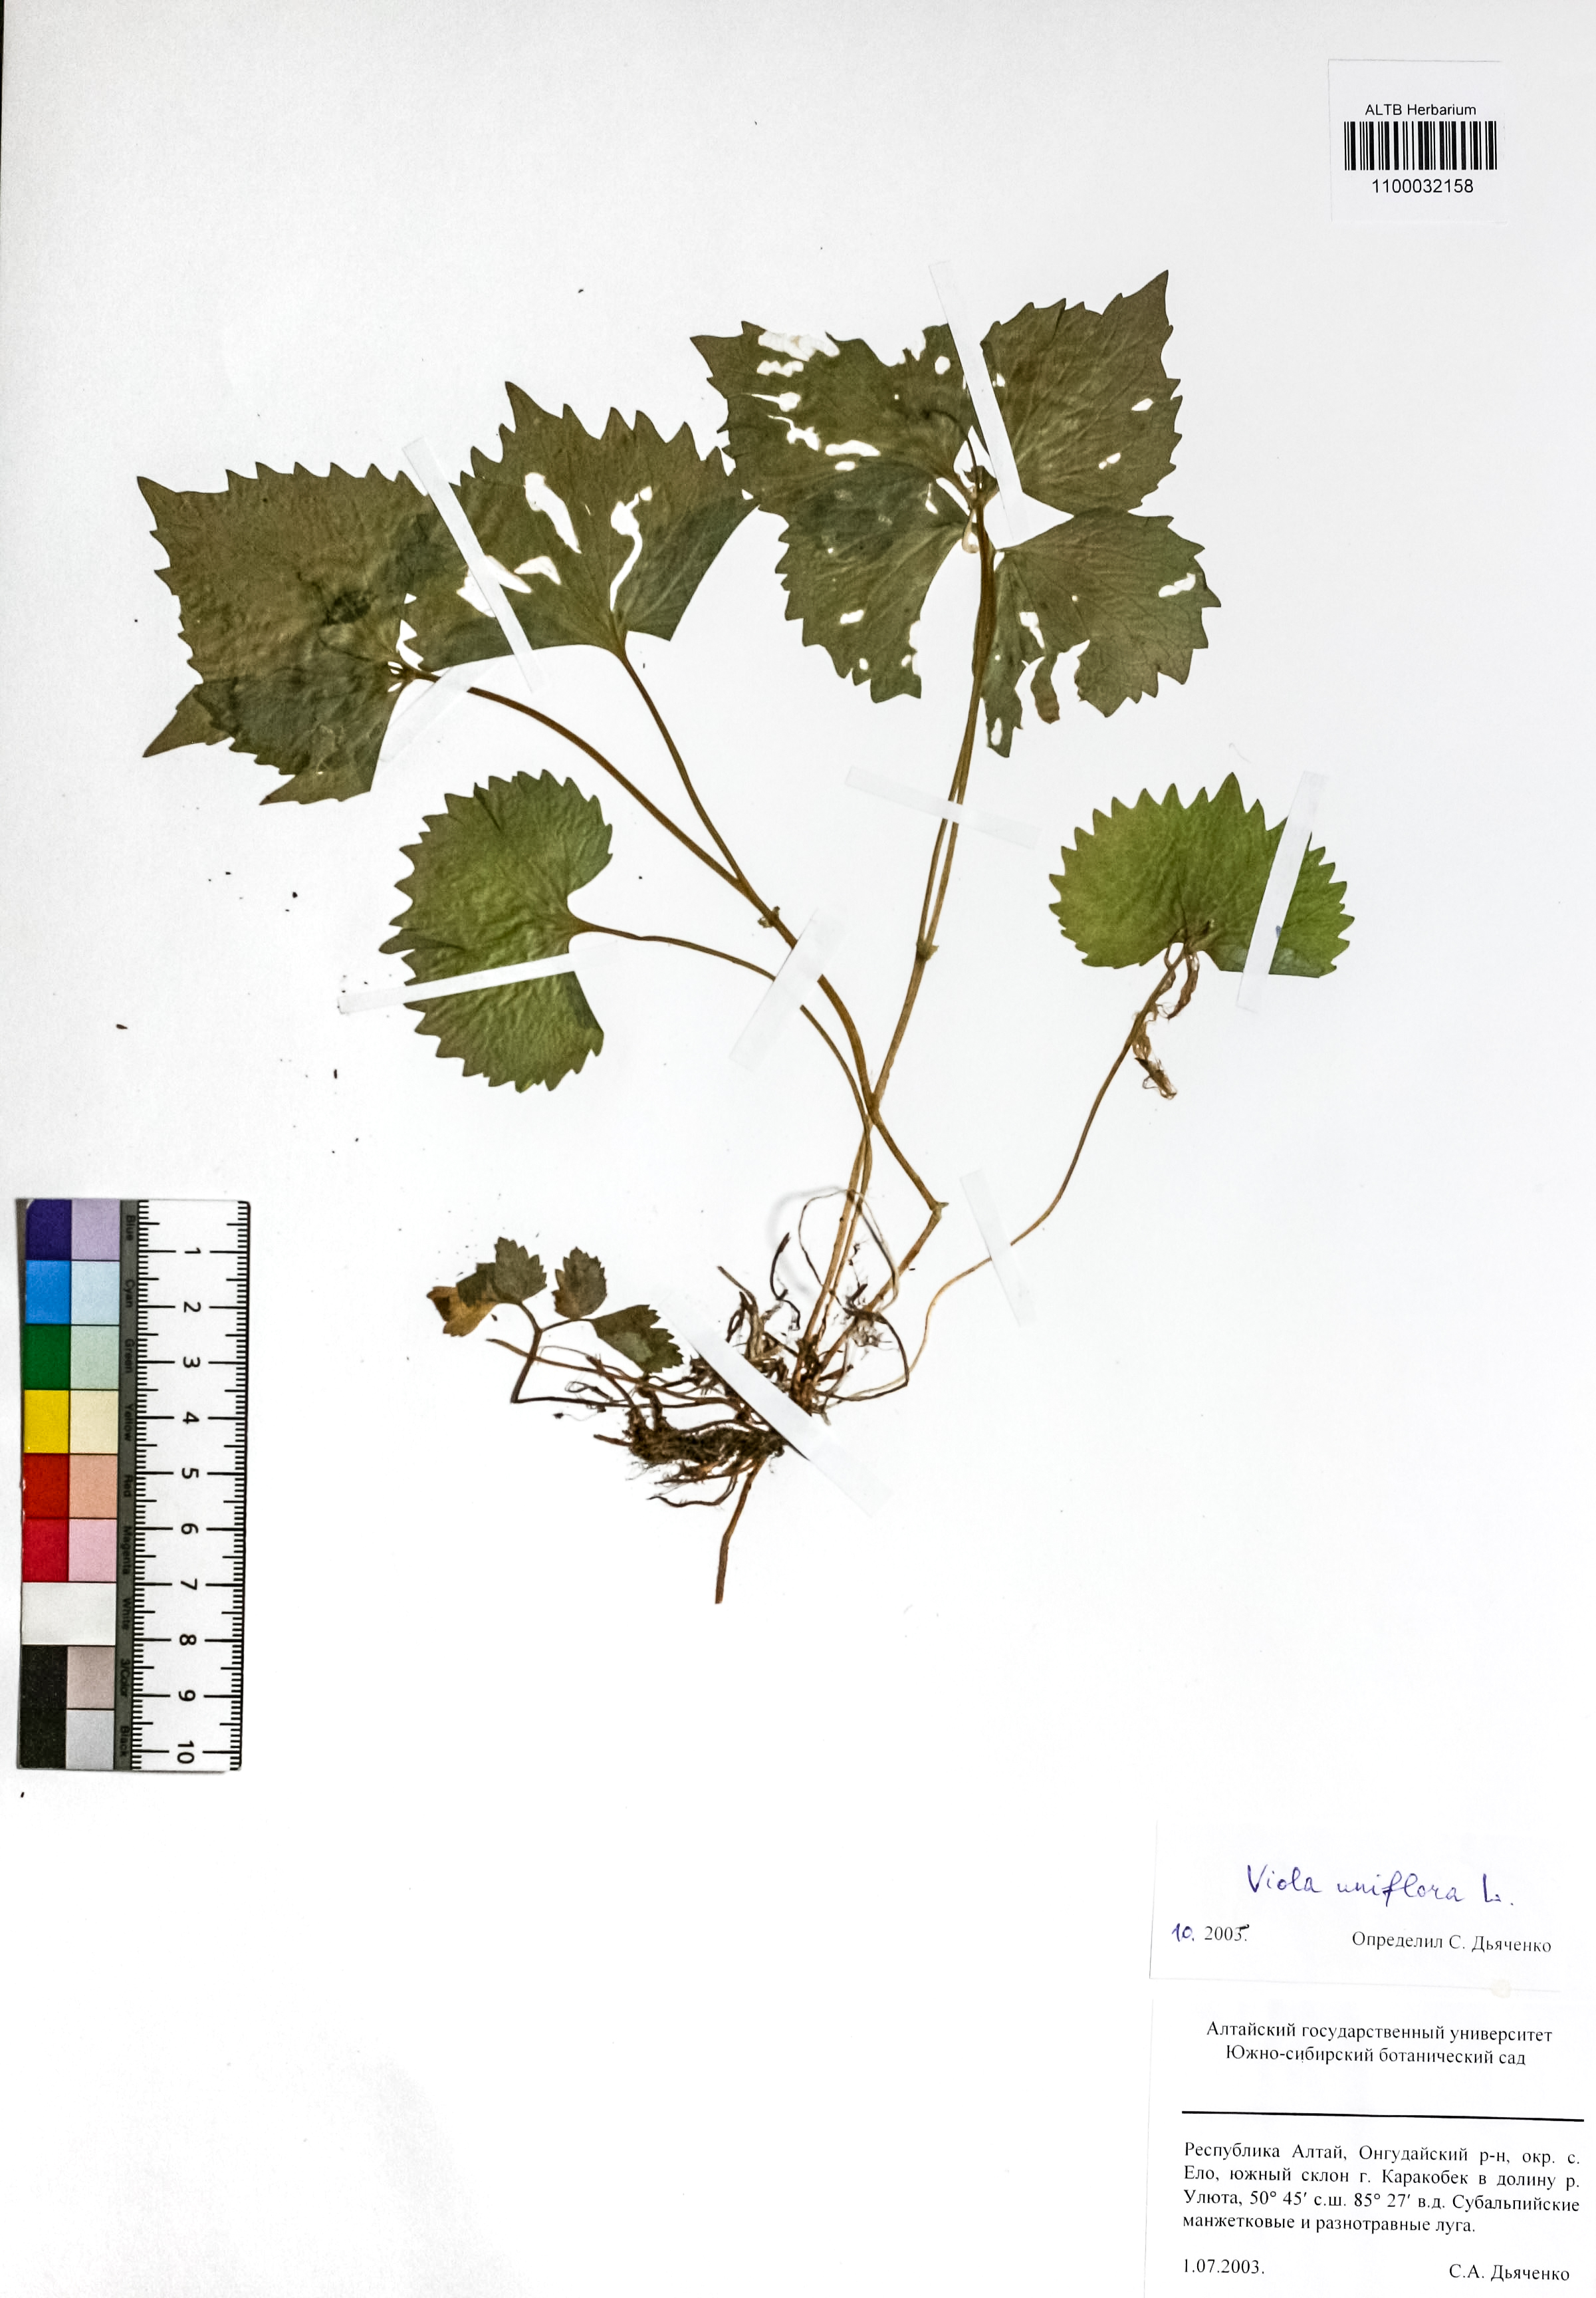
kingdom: Plantae
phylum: Tracheophyta
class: Magnoliopsida
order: Malpighiales
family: Violaceae
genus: Viola
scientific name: Viola uniflora
